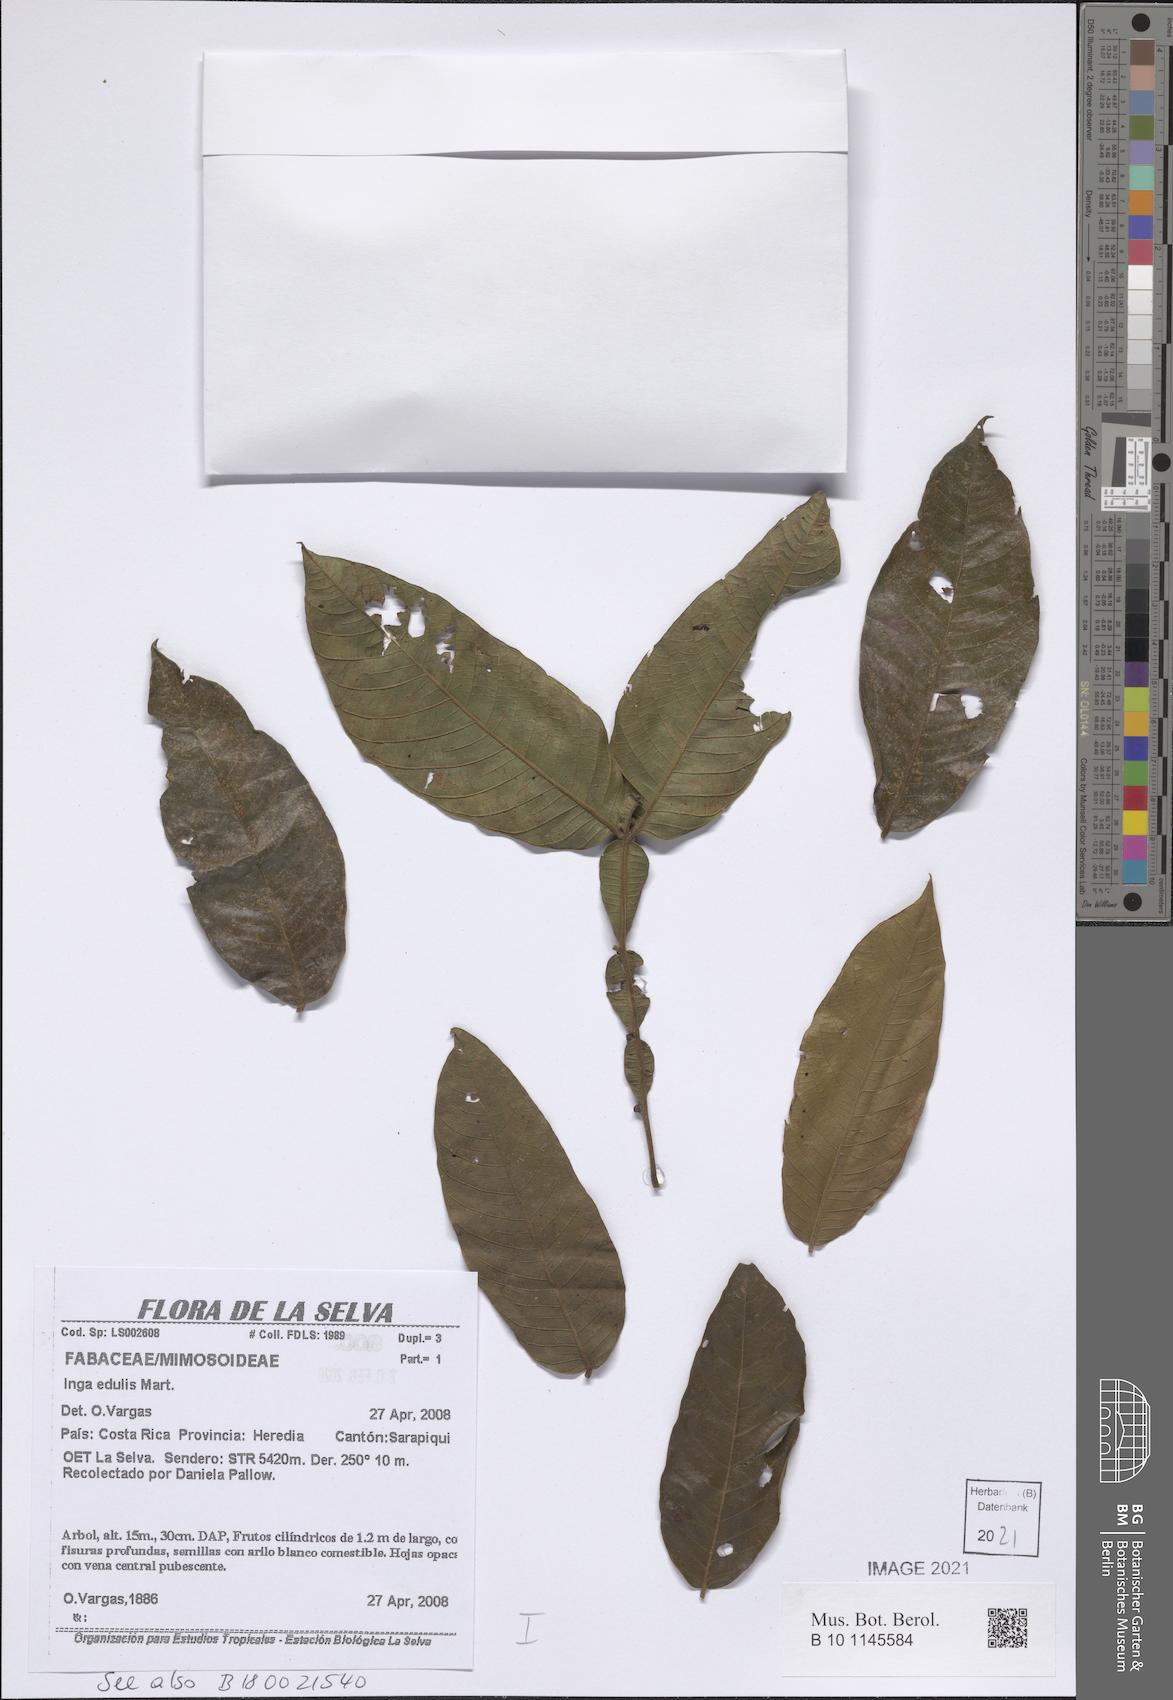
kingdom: Plantae
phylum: Tracheophyta
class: Magnoliopsida
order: Fabales
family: Fabaceae
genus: Inga
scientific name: Inga edulis
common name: Ice cream bean
